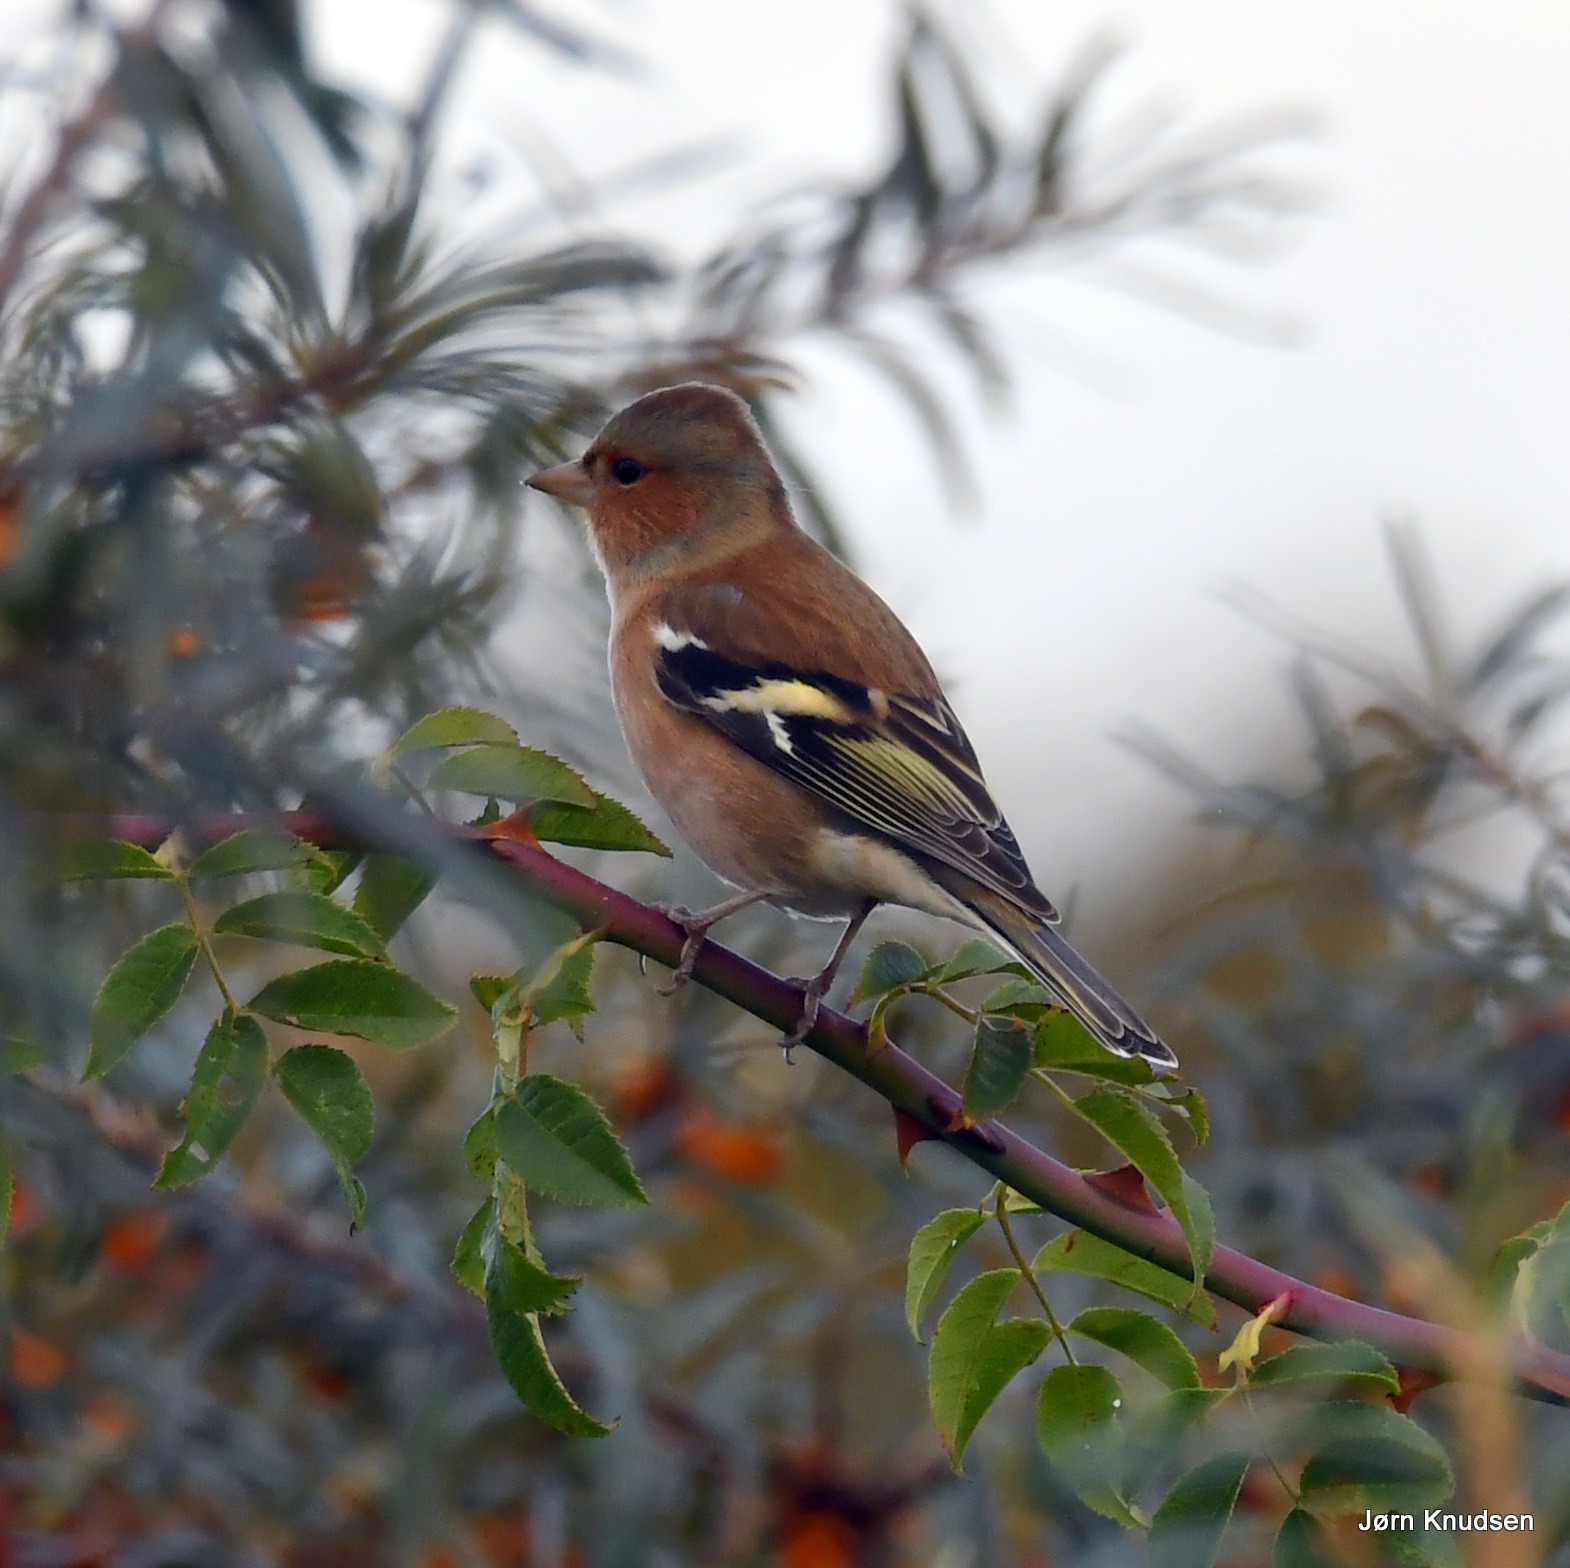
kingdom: Animalia
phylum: Chordata
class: Aves
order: Passeriformes
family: Fringillidae
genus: Fringilla
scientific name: Fringilla coelebs
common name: Bogfinke
